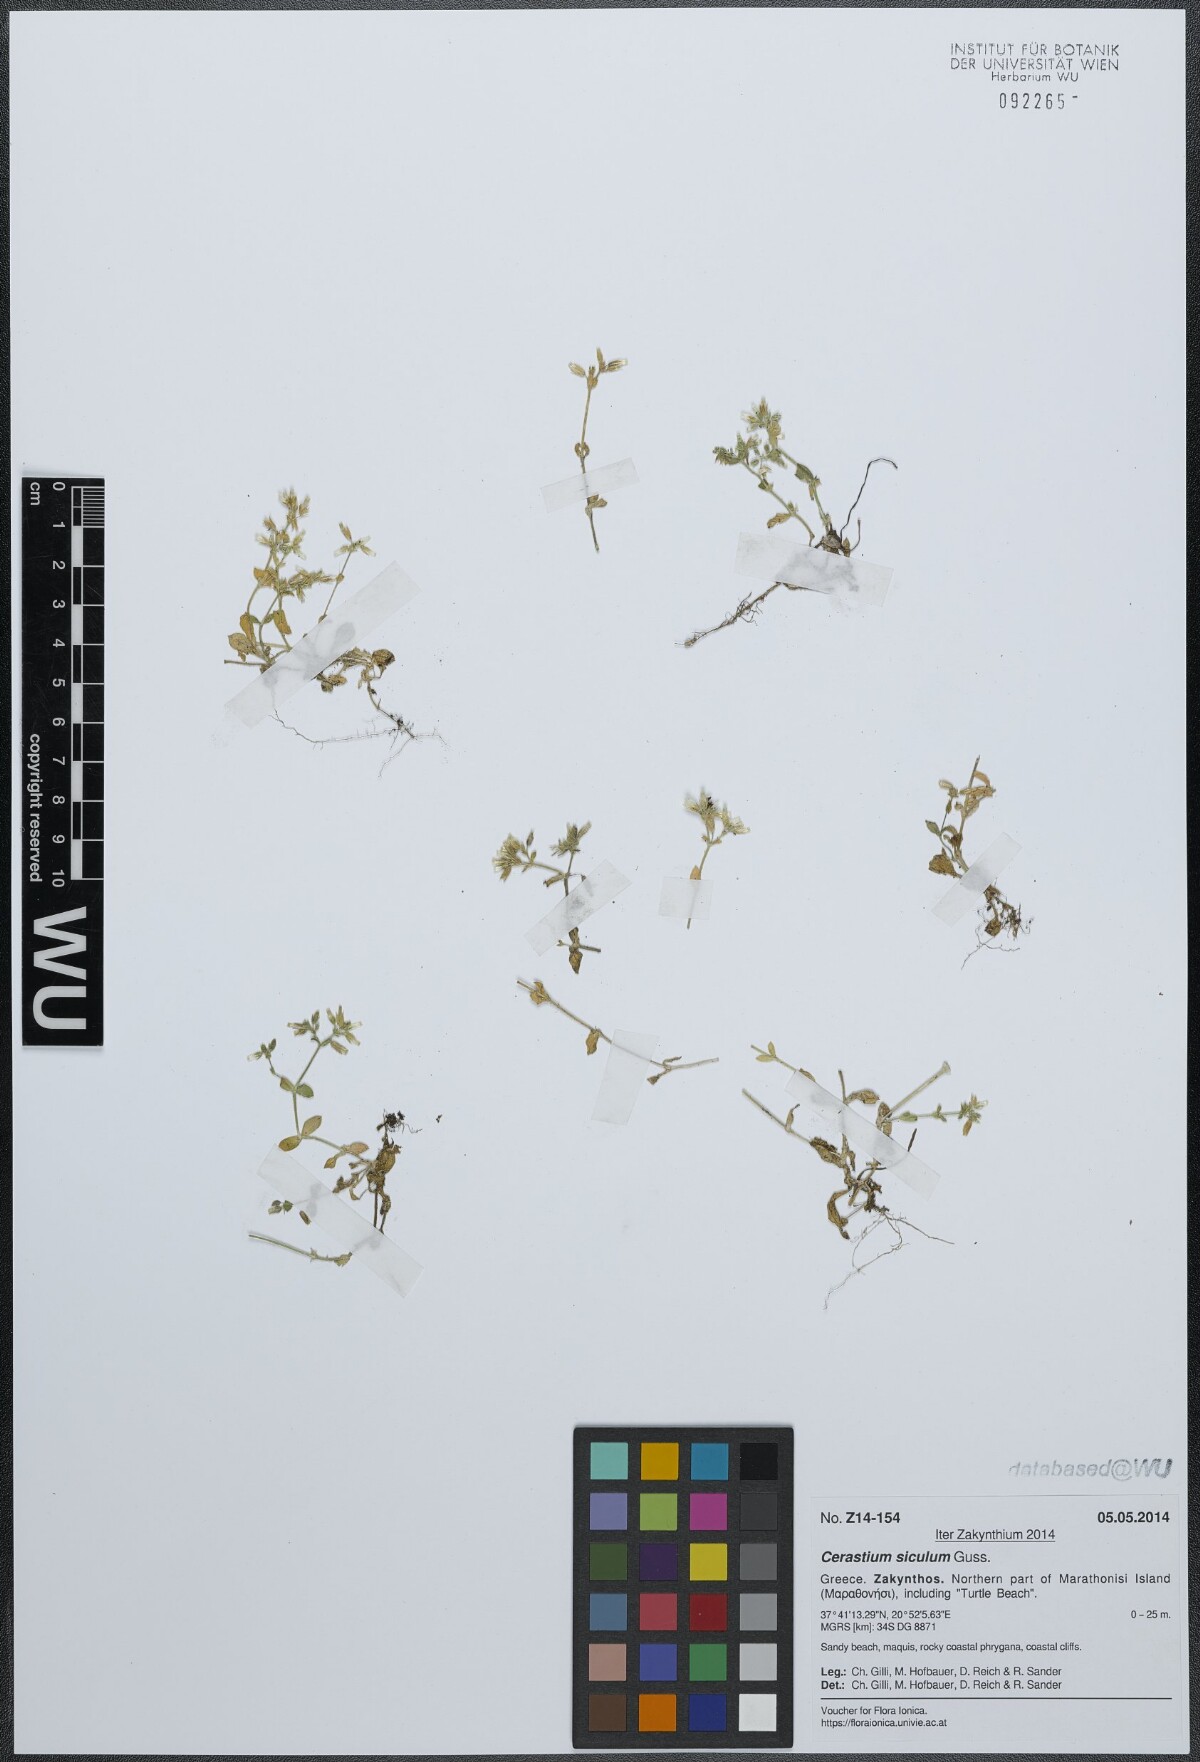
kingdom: Plantae
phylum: Tracheophyta
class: Magnoliopsida
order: Caryophyllales
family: Caryophyllaceae
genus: Cerastium
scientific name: Cerastium siculum
